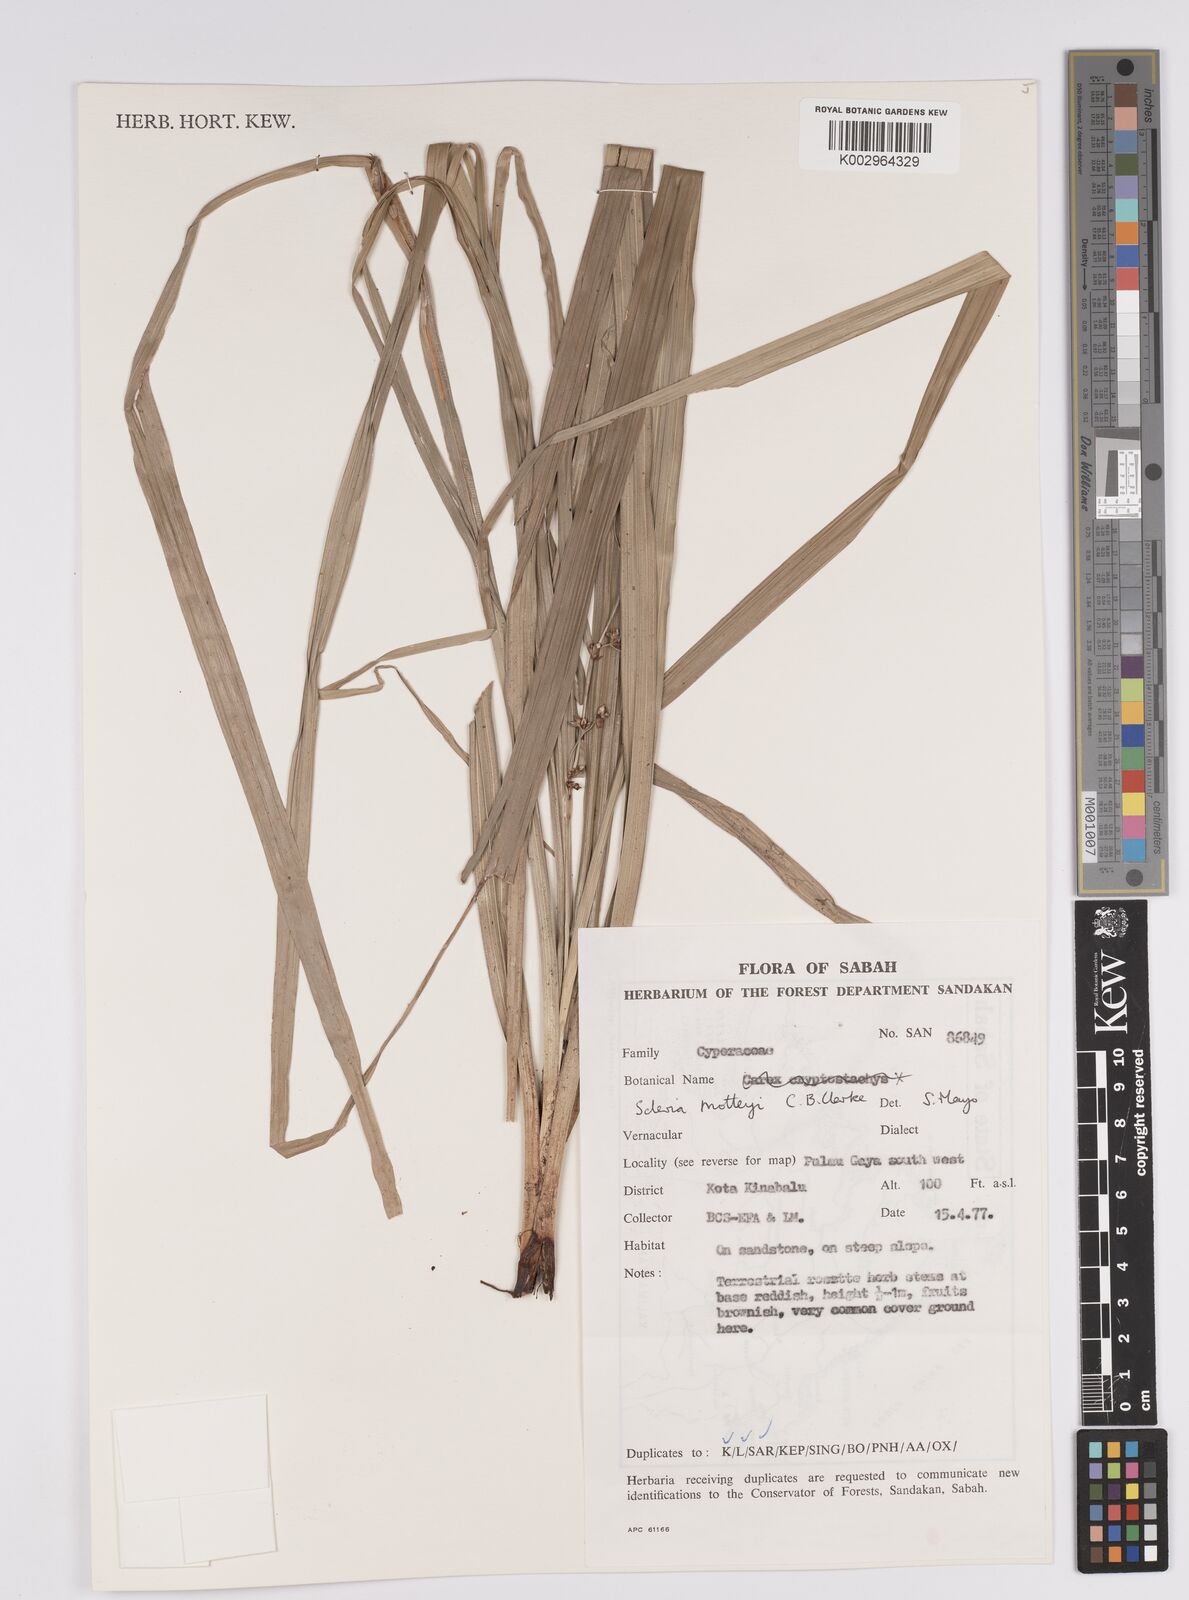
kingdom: Plantae
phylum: Tracheophyta
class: Liliopsida
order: Poales
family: Cyperaceae
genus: Scleria
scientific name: Scleria motleyi
